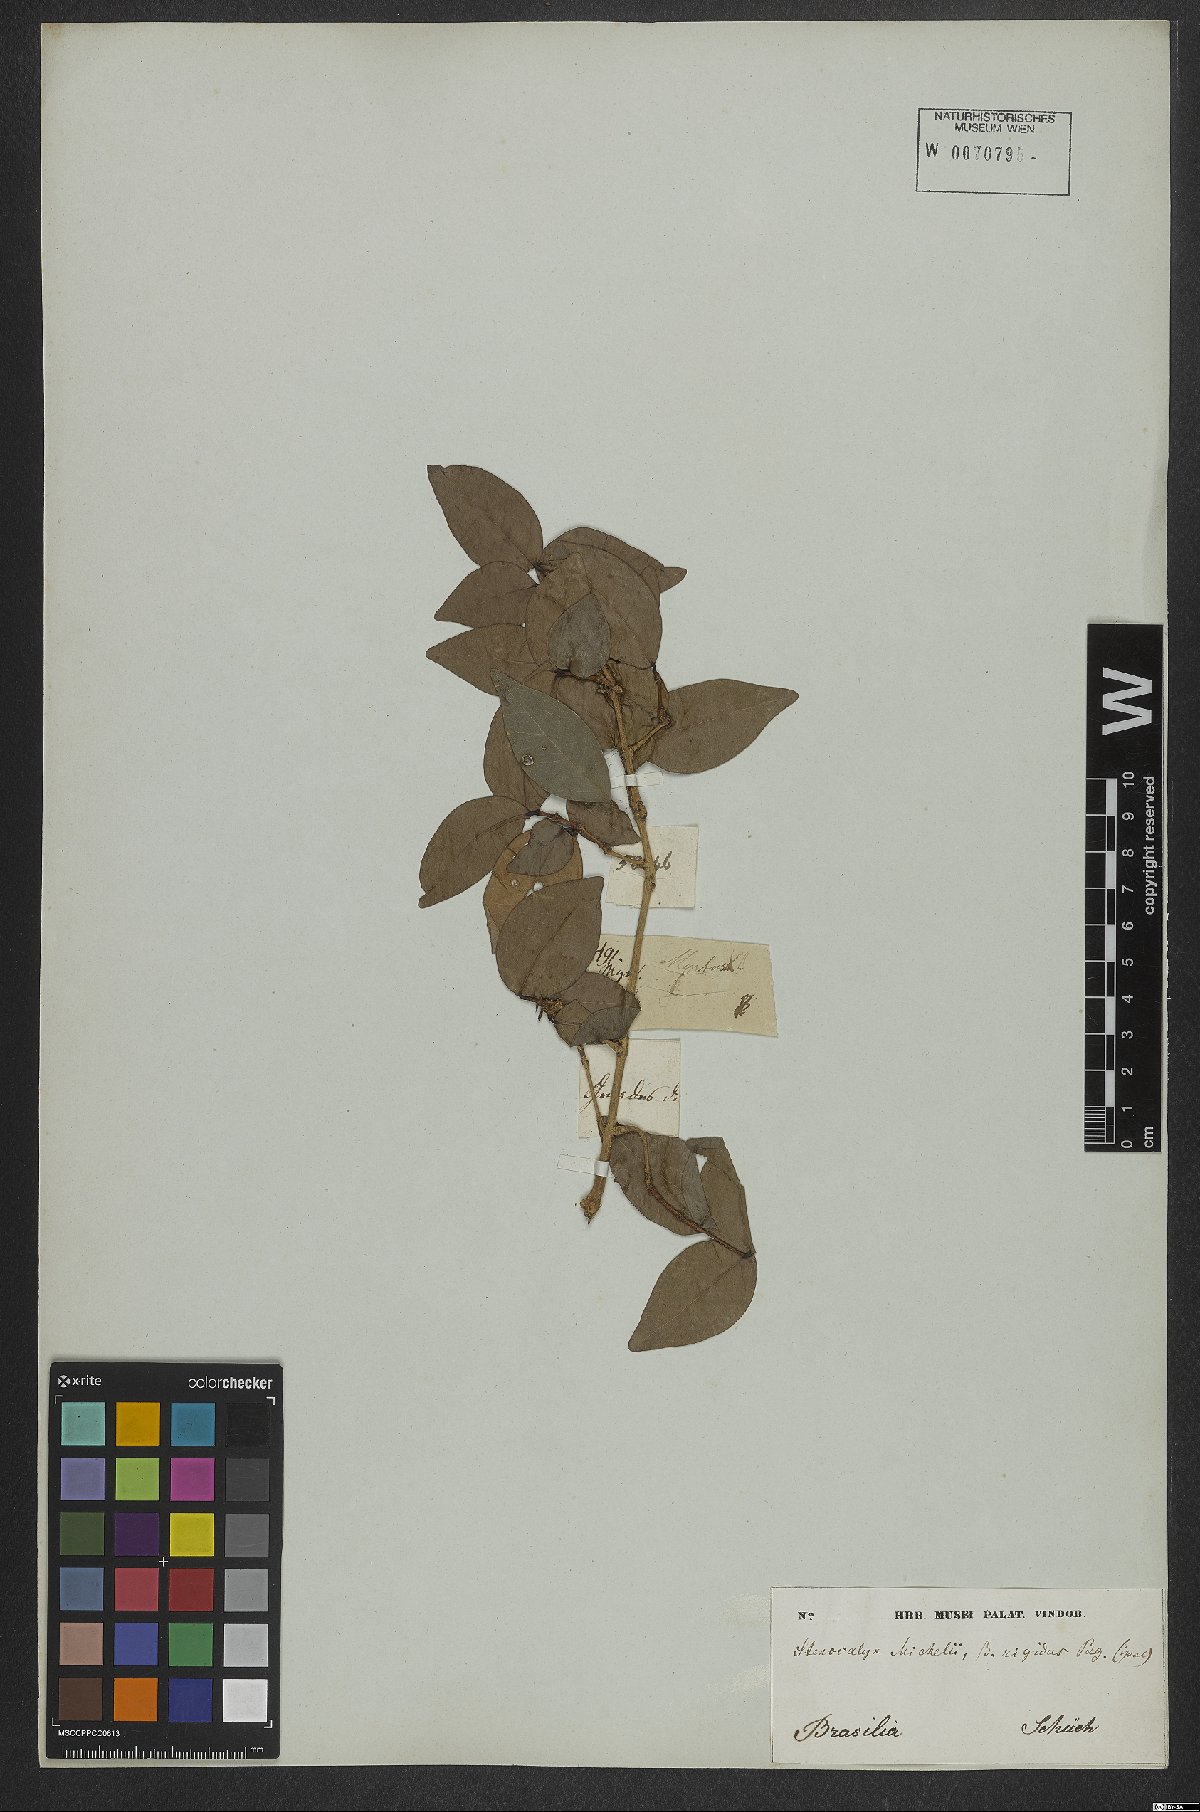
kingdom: Plantae
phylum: Tracheophyta
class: Magnoliopsida
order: Myrtales
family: Myrtaceae
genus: Eugenia
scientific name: Eugenia uniflora
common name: Surinam cherry
